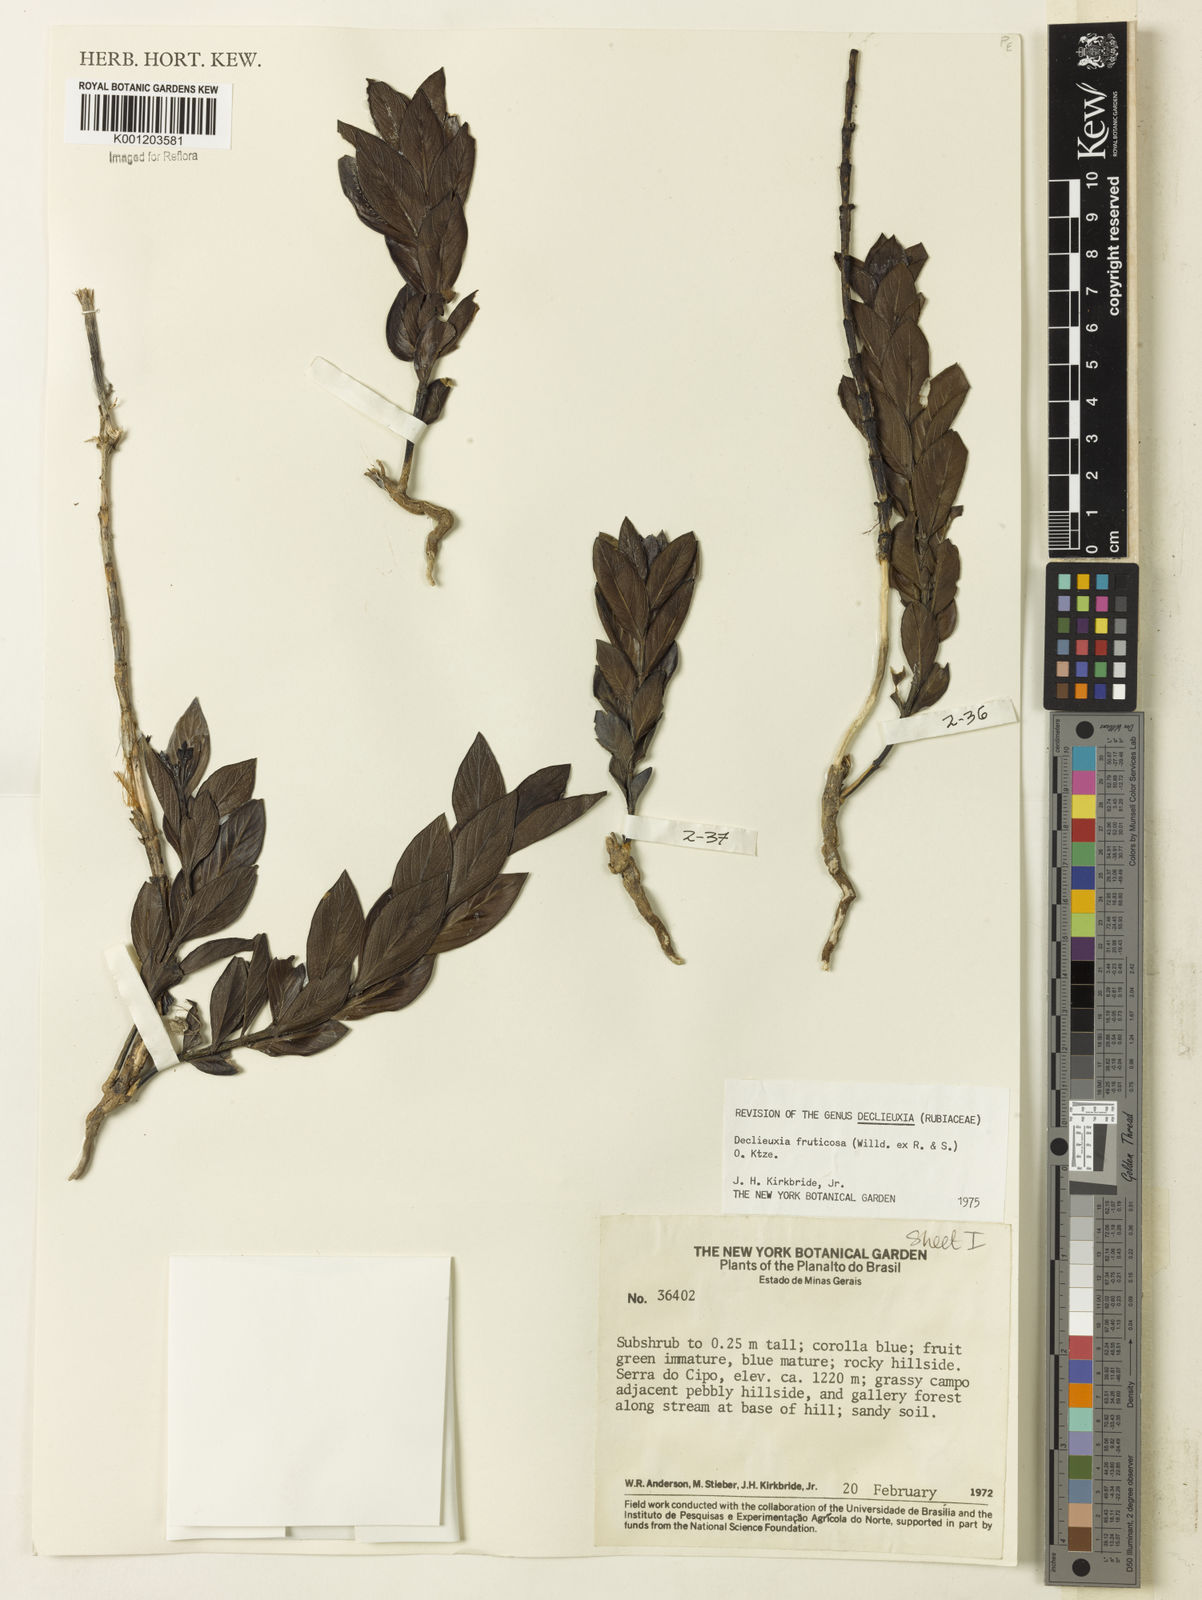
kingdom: Plantae
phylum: Tracheophyta
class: Magnoliopsida
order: Gentianales
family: Rubiaceae
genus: Declieuxia
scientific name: Declieuxia fruticosa
